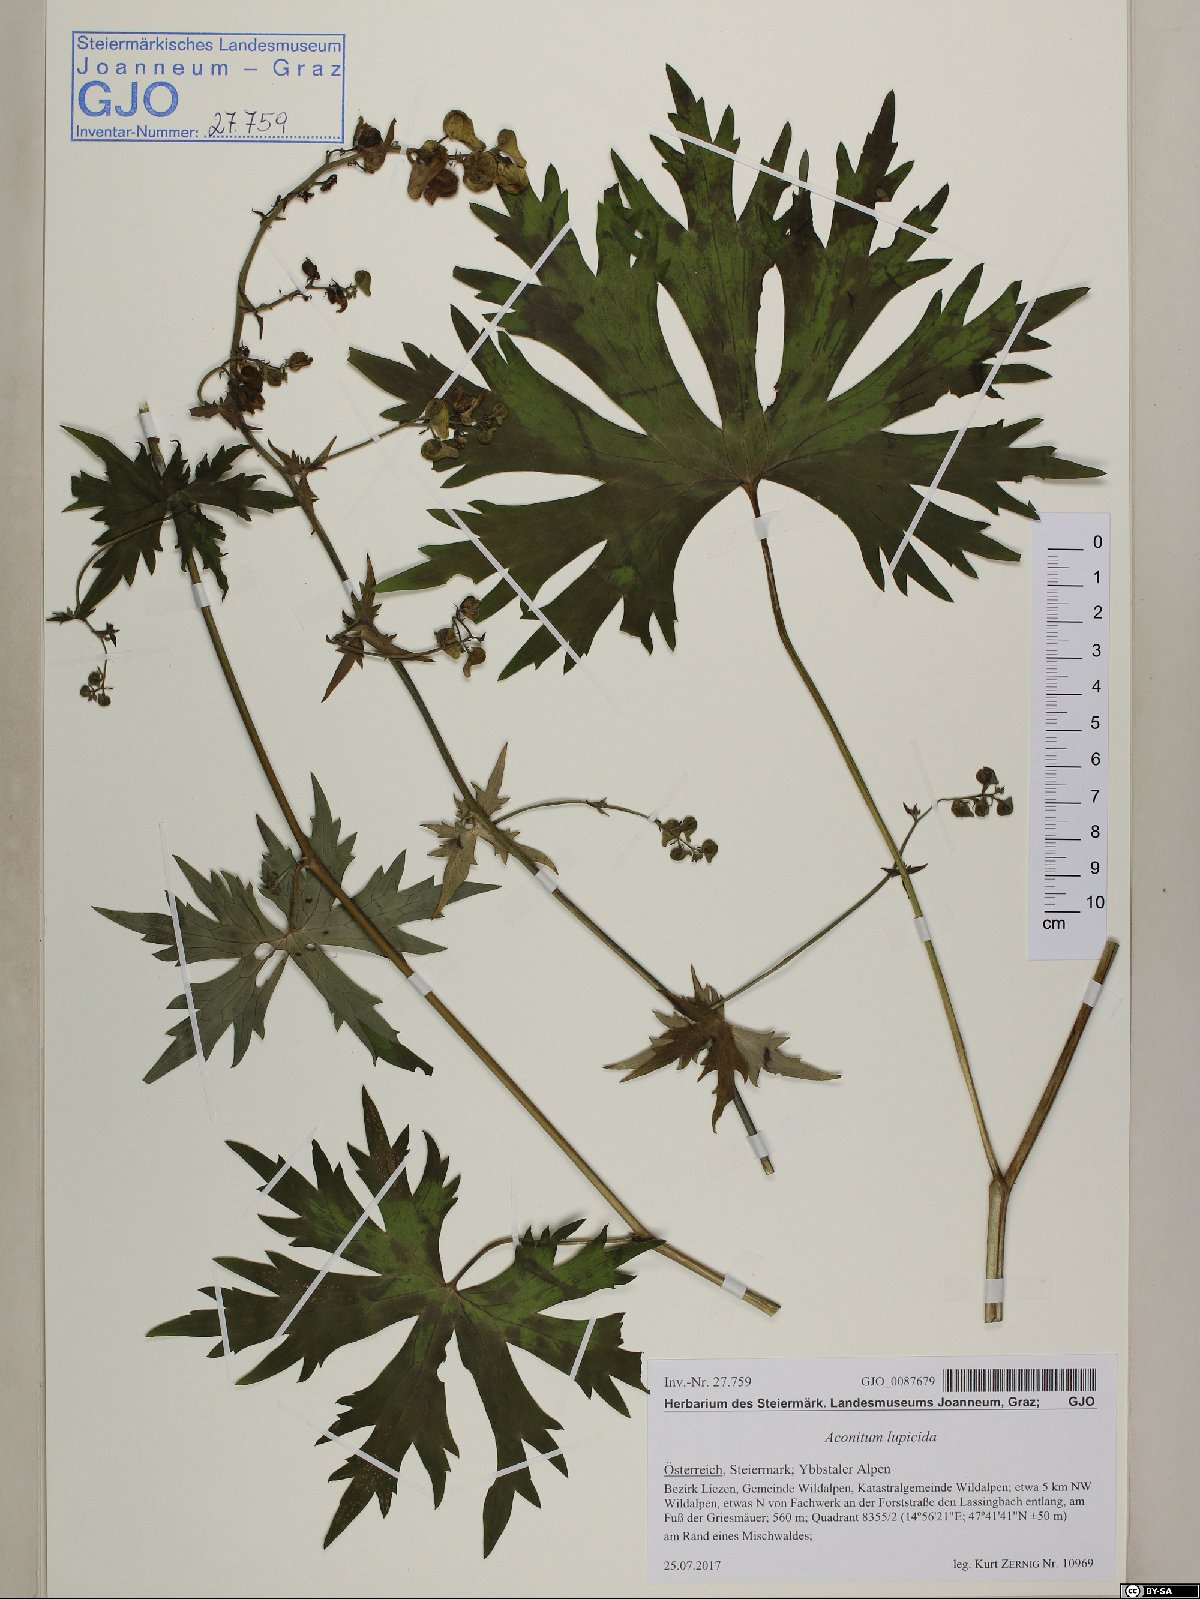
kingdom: Plantae
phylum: Tracheophyta
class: Magnoliopsida
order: Ranunculales
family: Ranunculaceae
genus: Aconitum
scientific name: Aconitum lycoctonum
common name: Wolf's-bane
